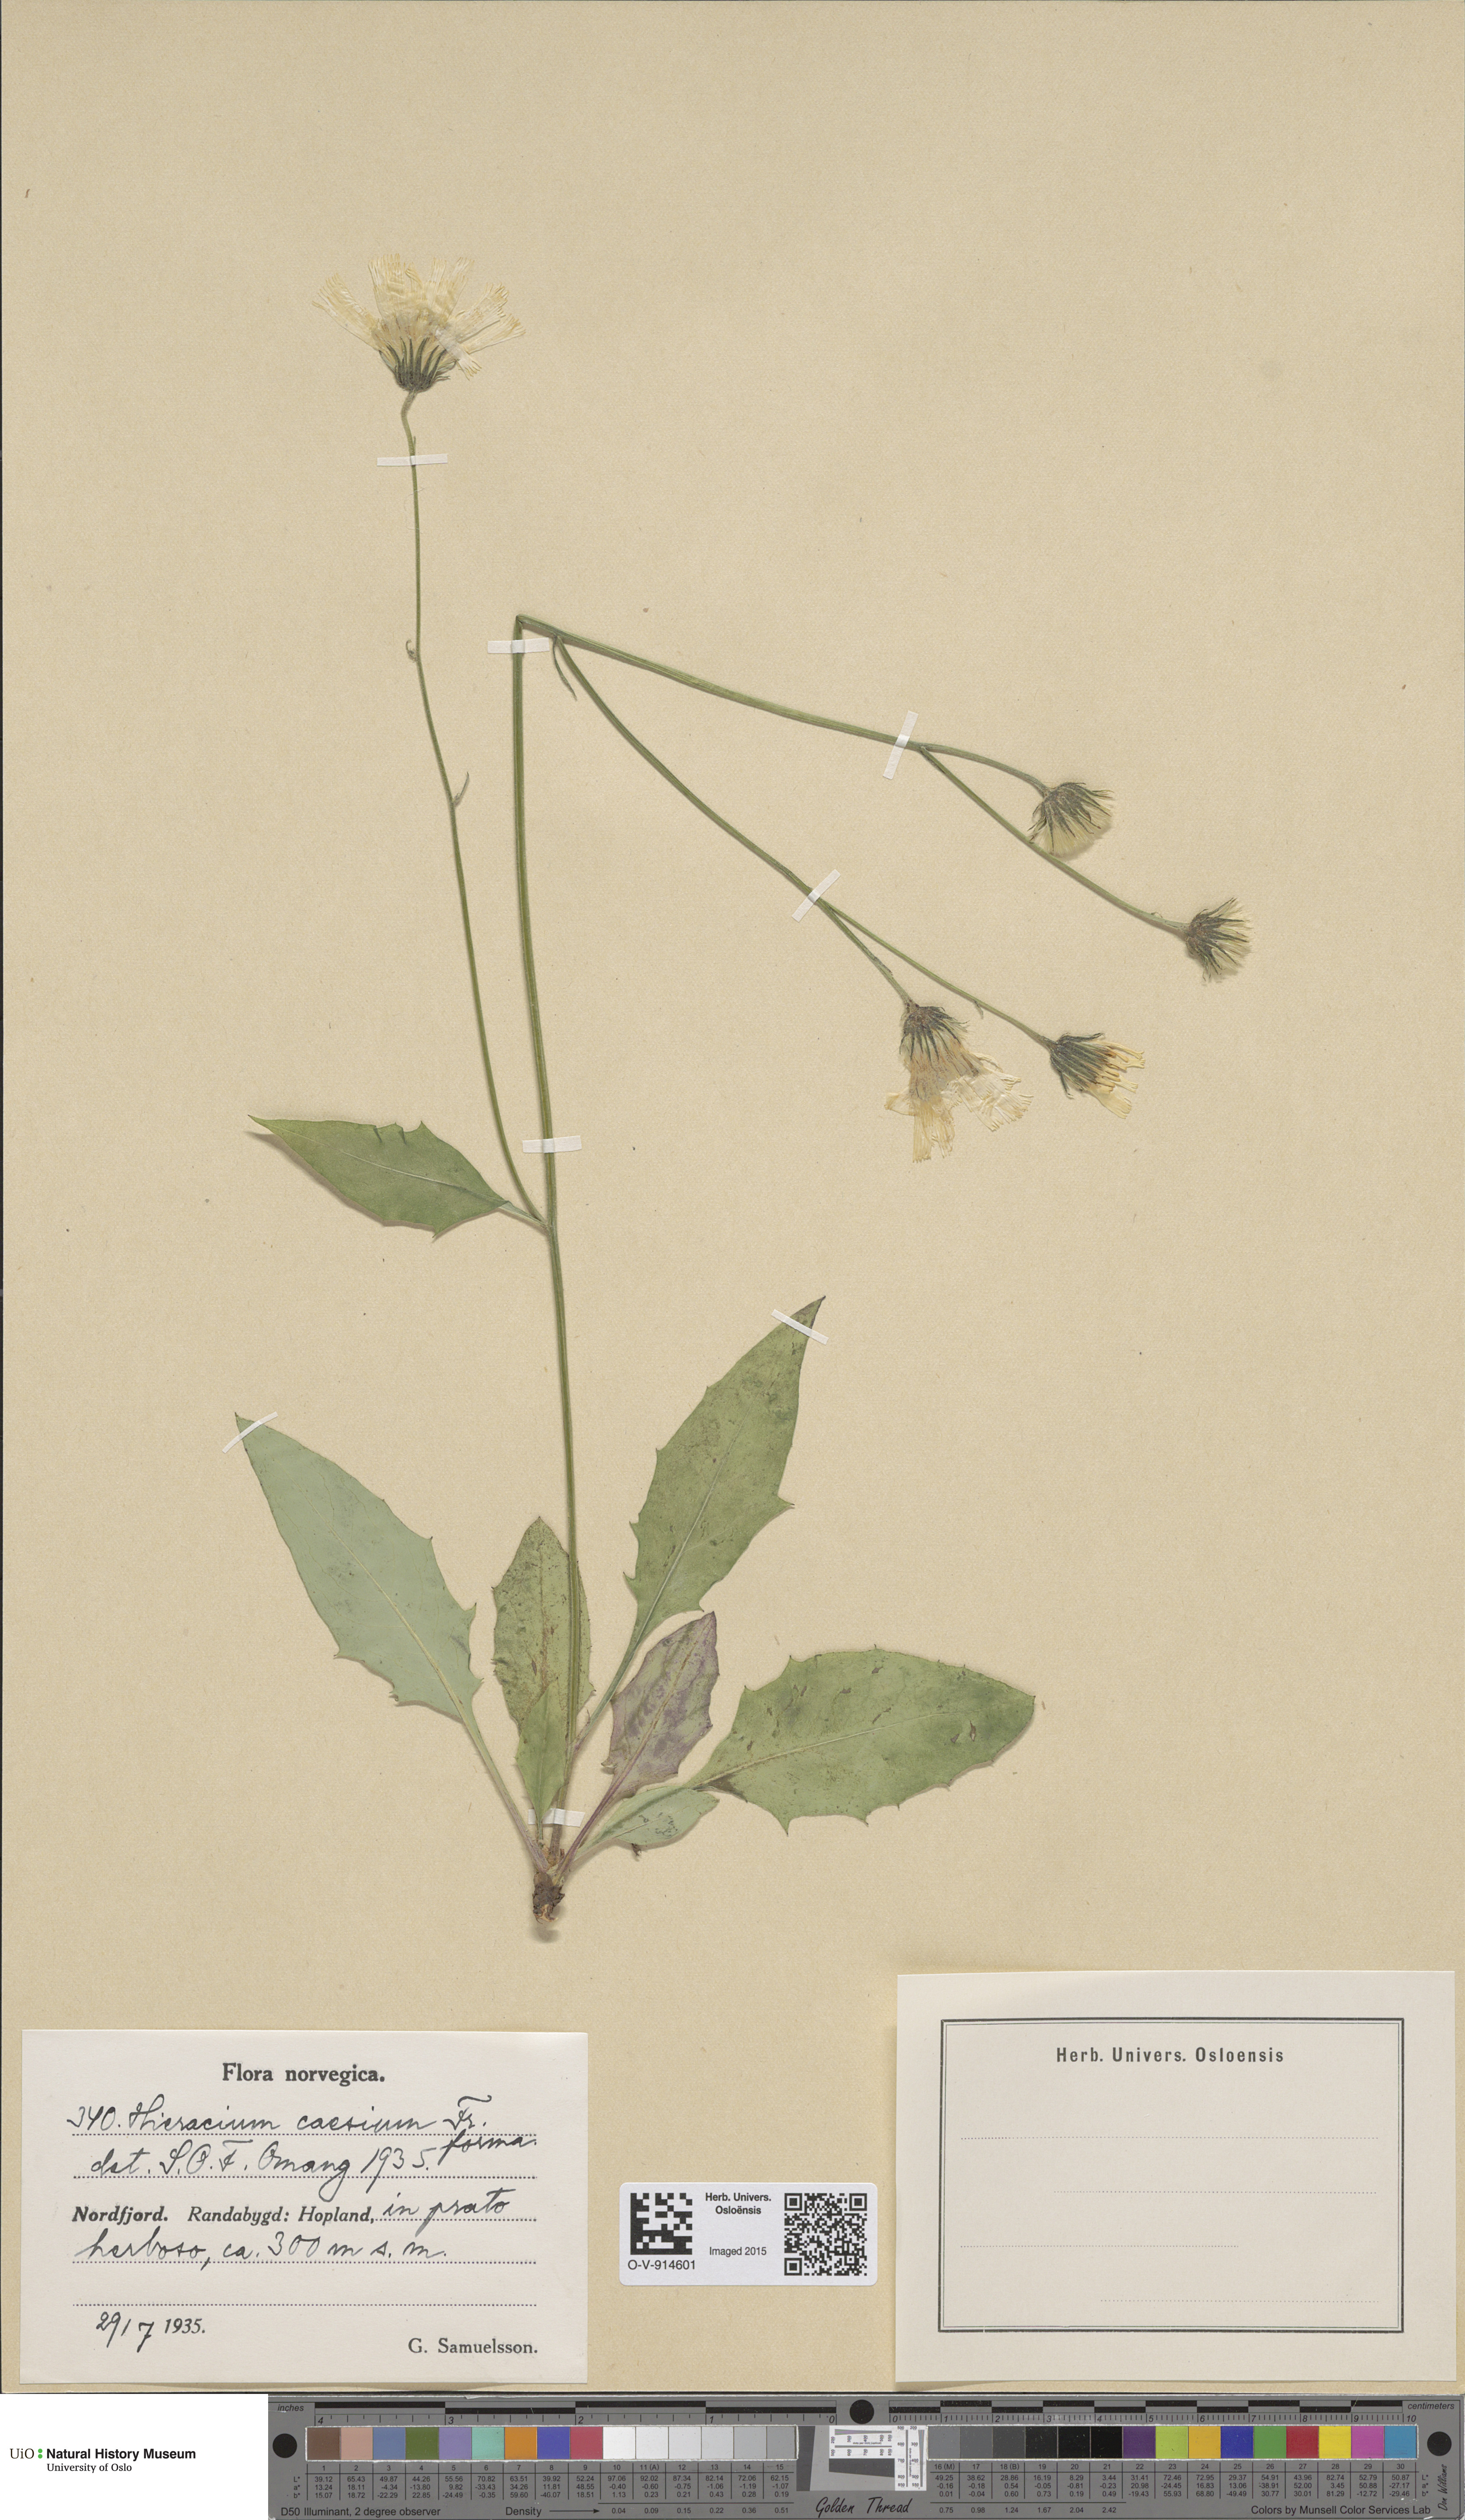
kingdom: Plantae
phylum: Tracheophyta
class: Magnoliopsida
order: Asterales
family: Asteraceae
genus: Hieracium
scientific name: Hieracium caesium
